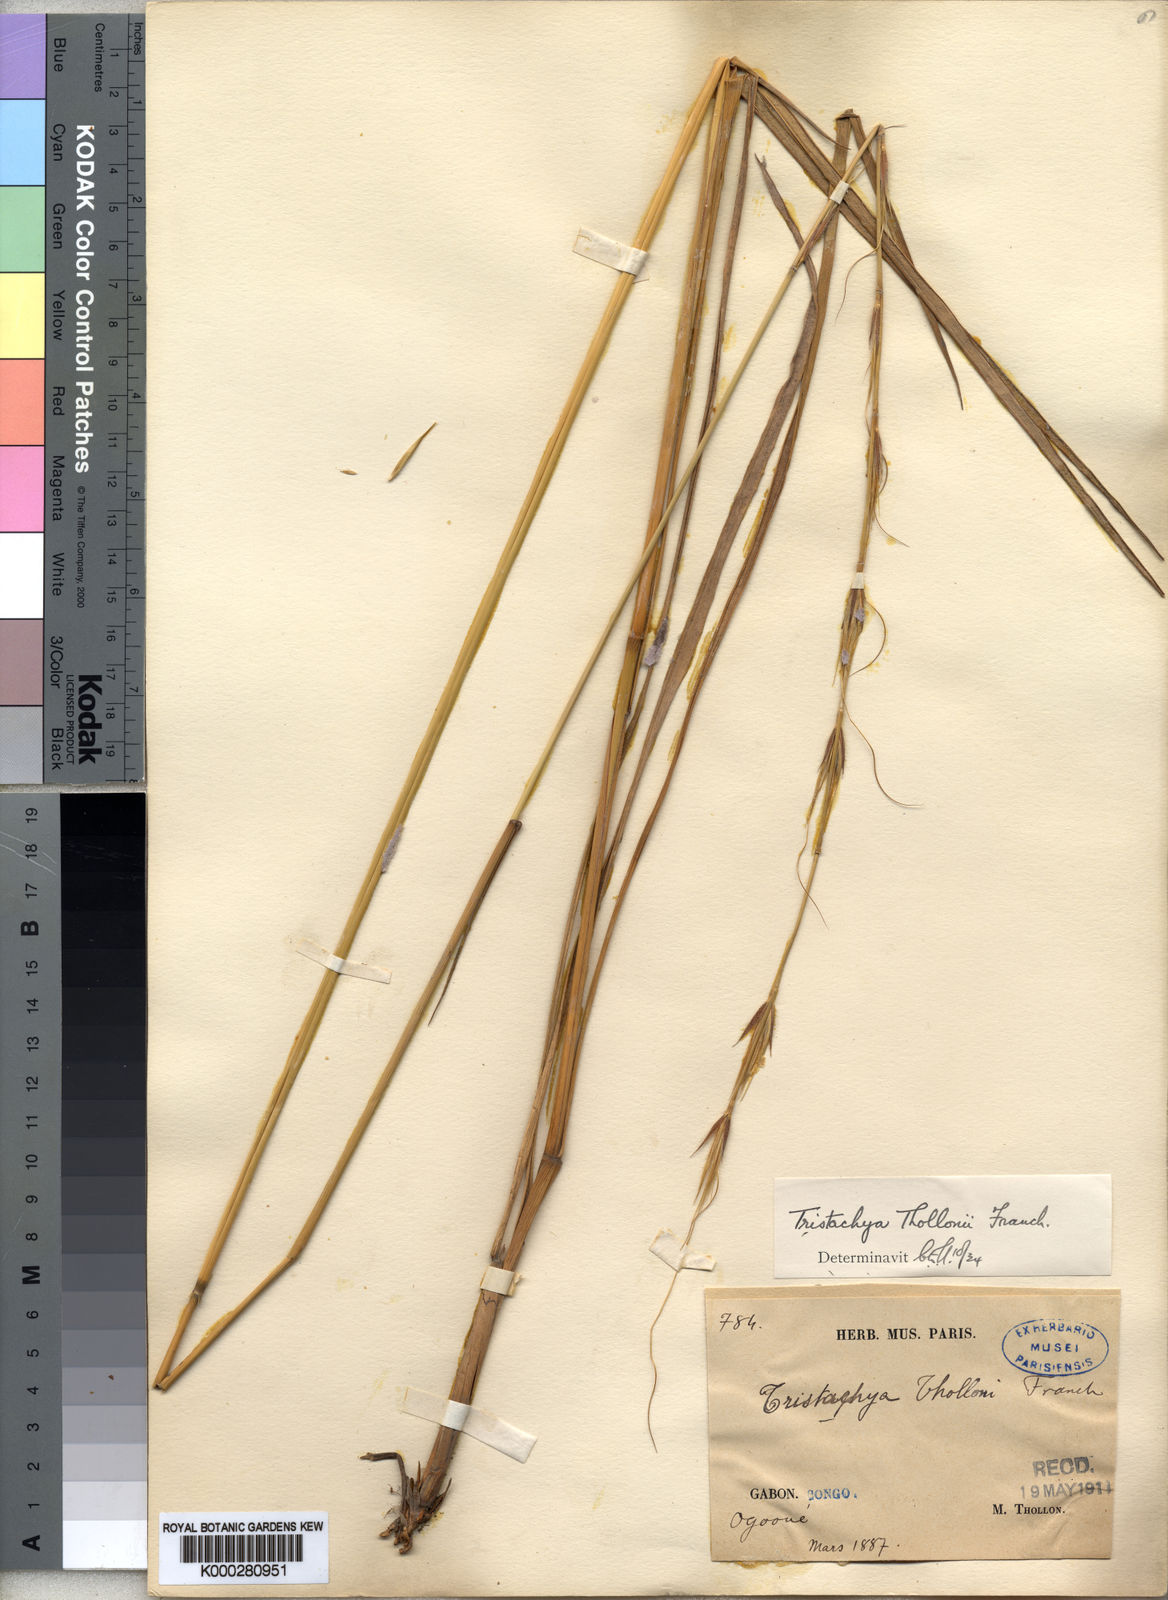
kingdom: Plantae
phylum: Tracheophyta
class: Liliopsida
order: Poales
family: Poaceae
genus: Tristachya
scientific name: Tristachya thollonii
